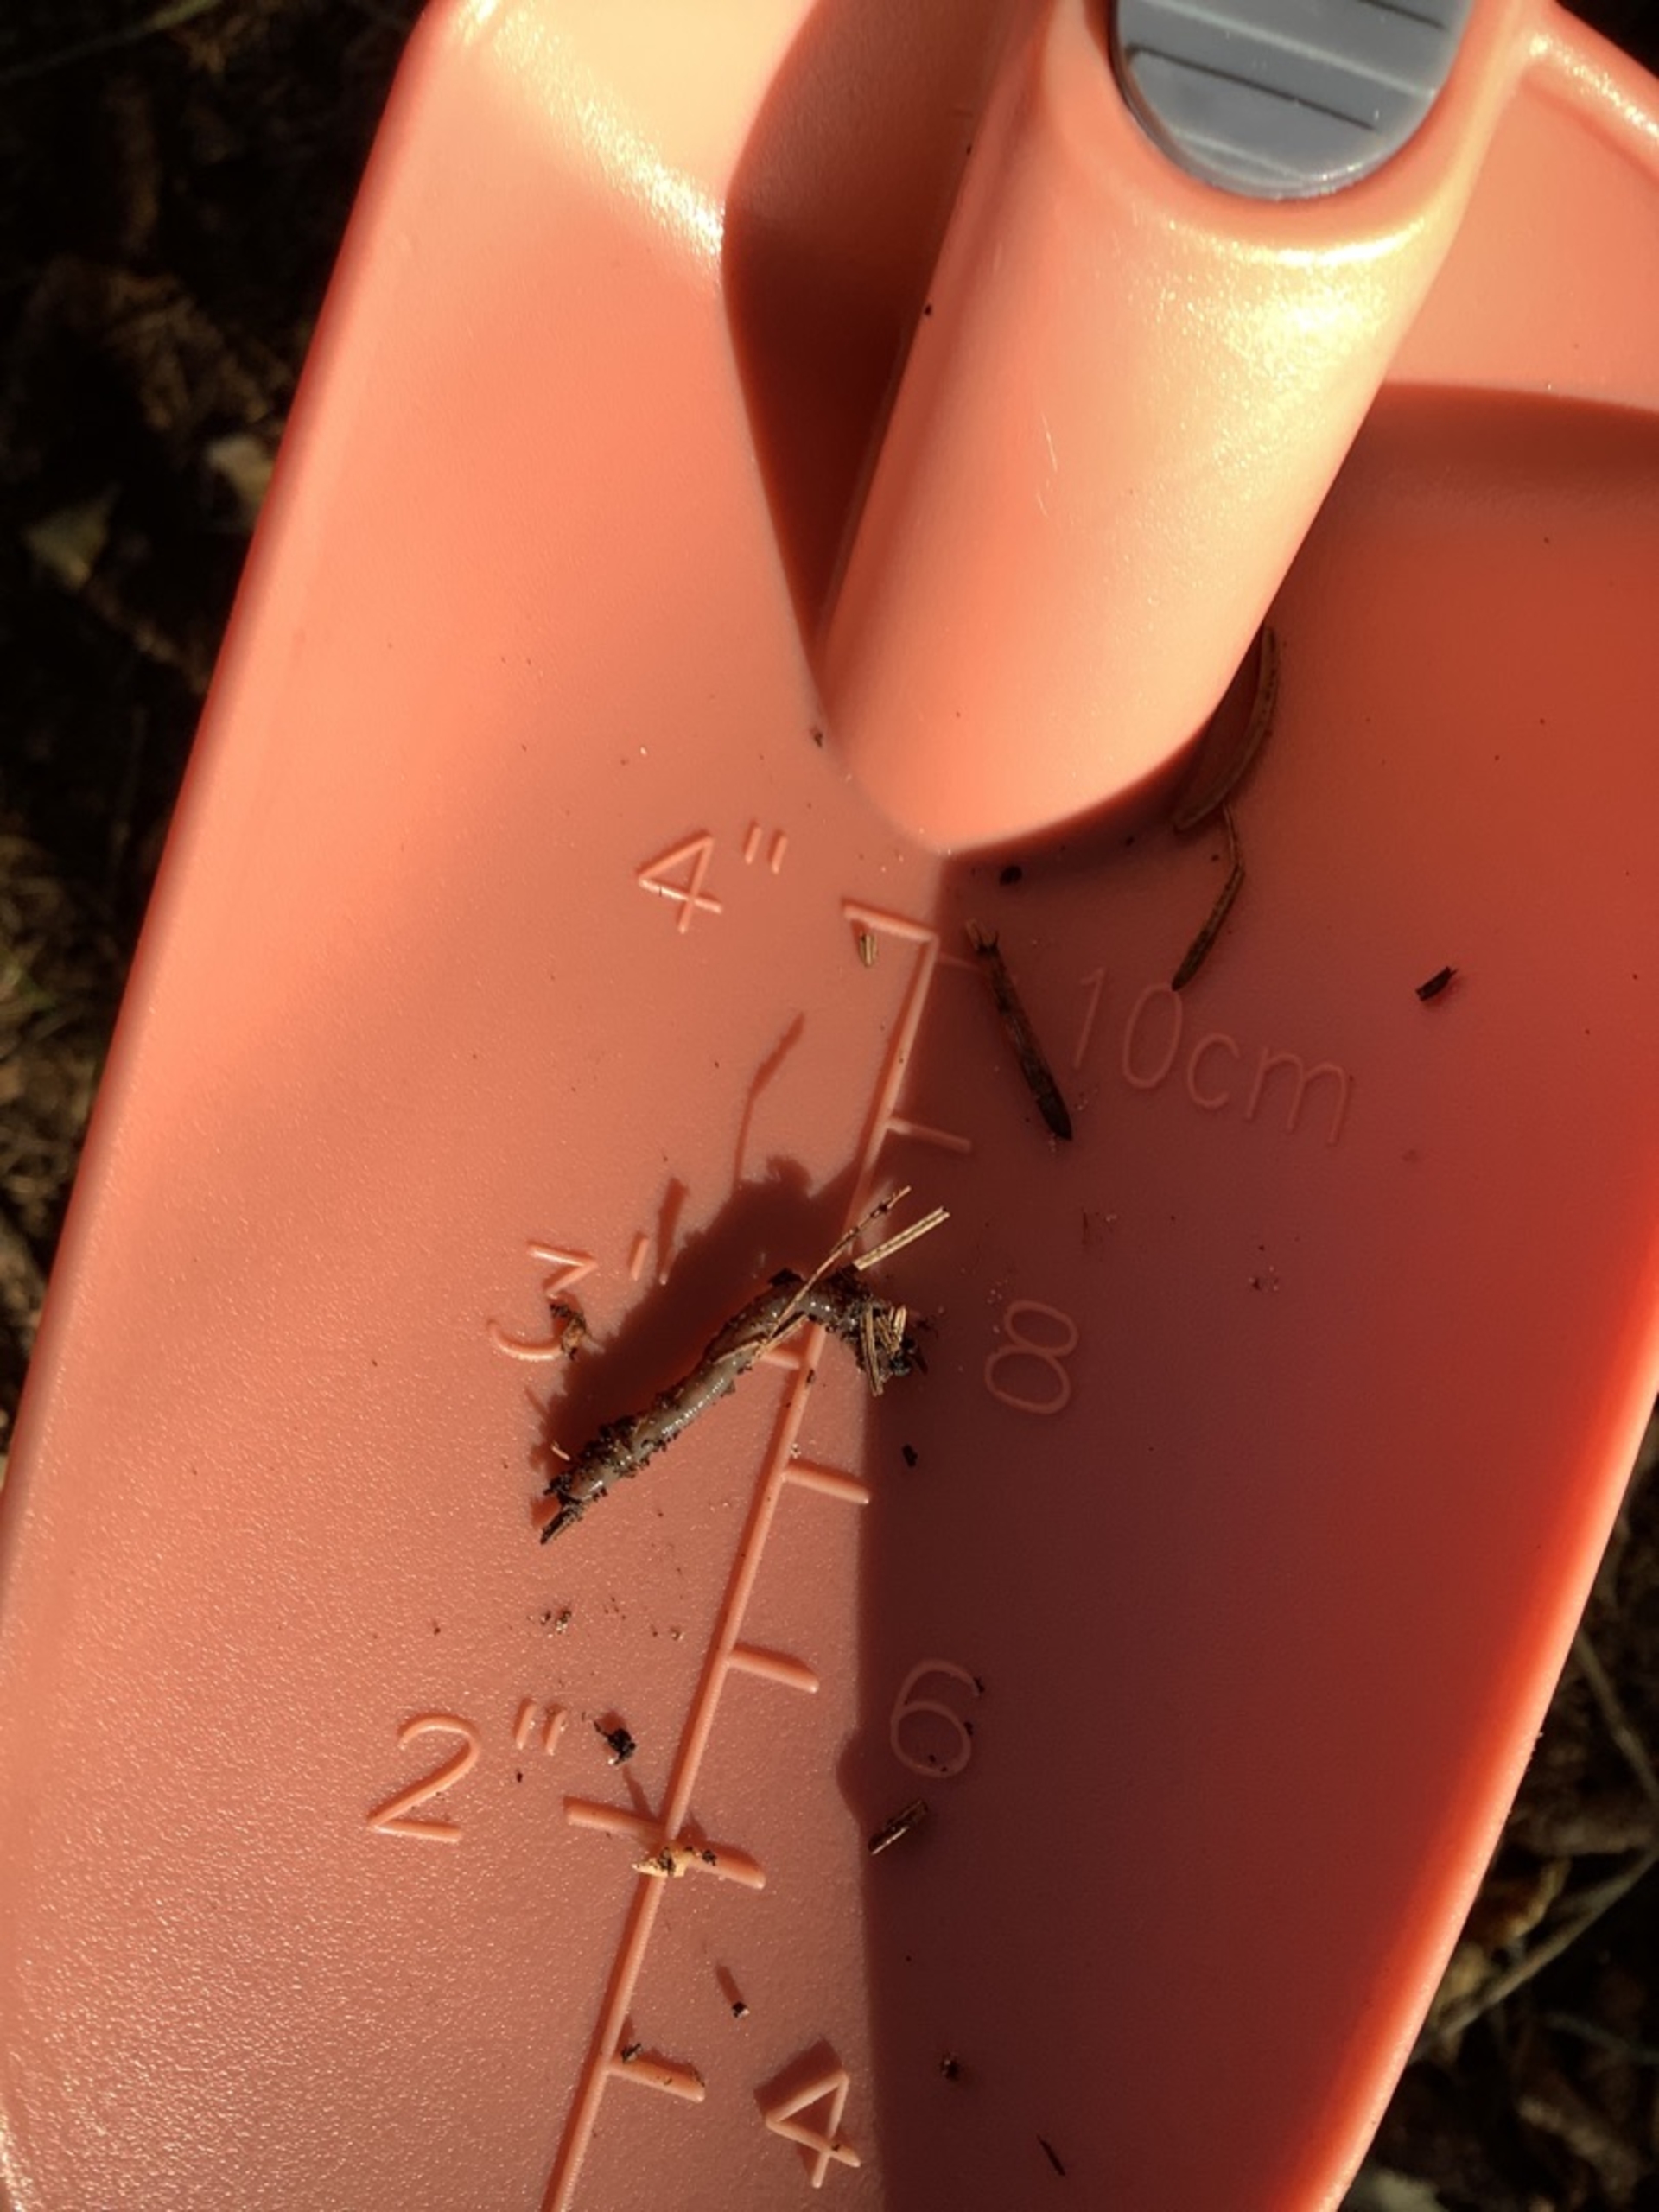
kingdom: Animalia
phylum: Annelida
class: Clitellata
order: Crassiclitellata
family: Lumbricidae
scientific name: Lumbricidae
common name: Regnorme
